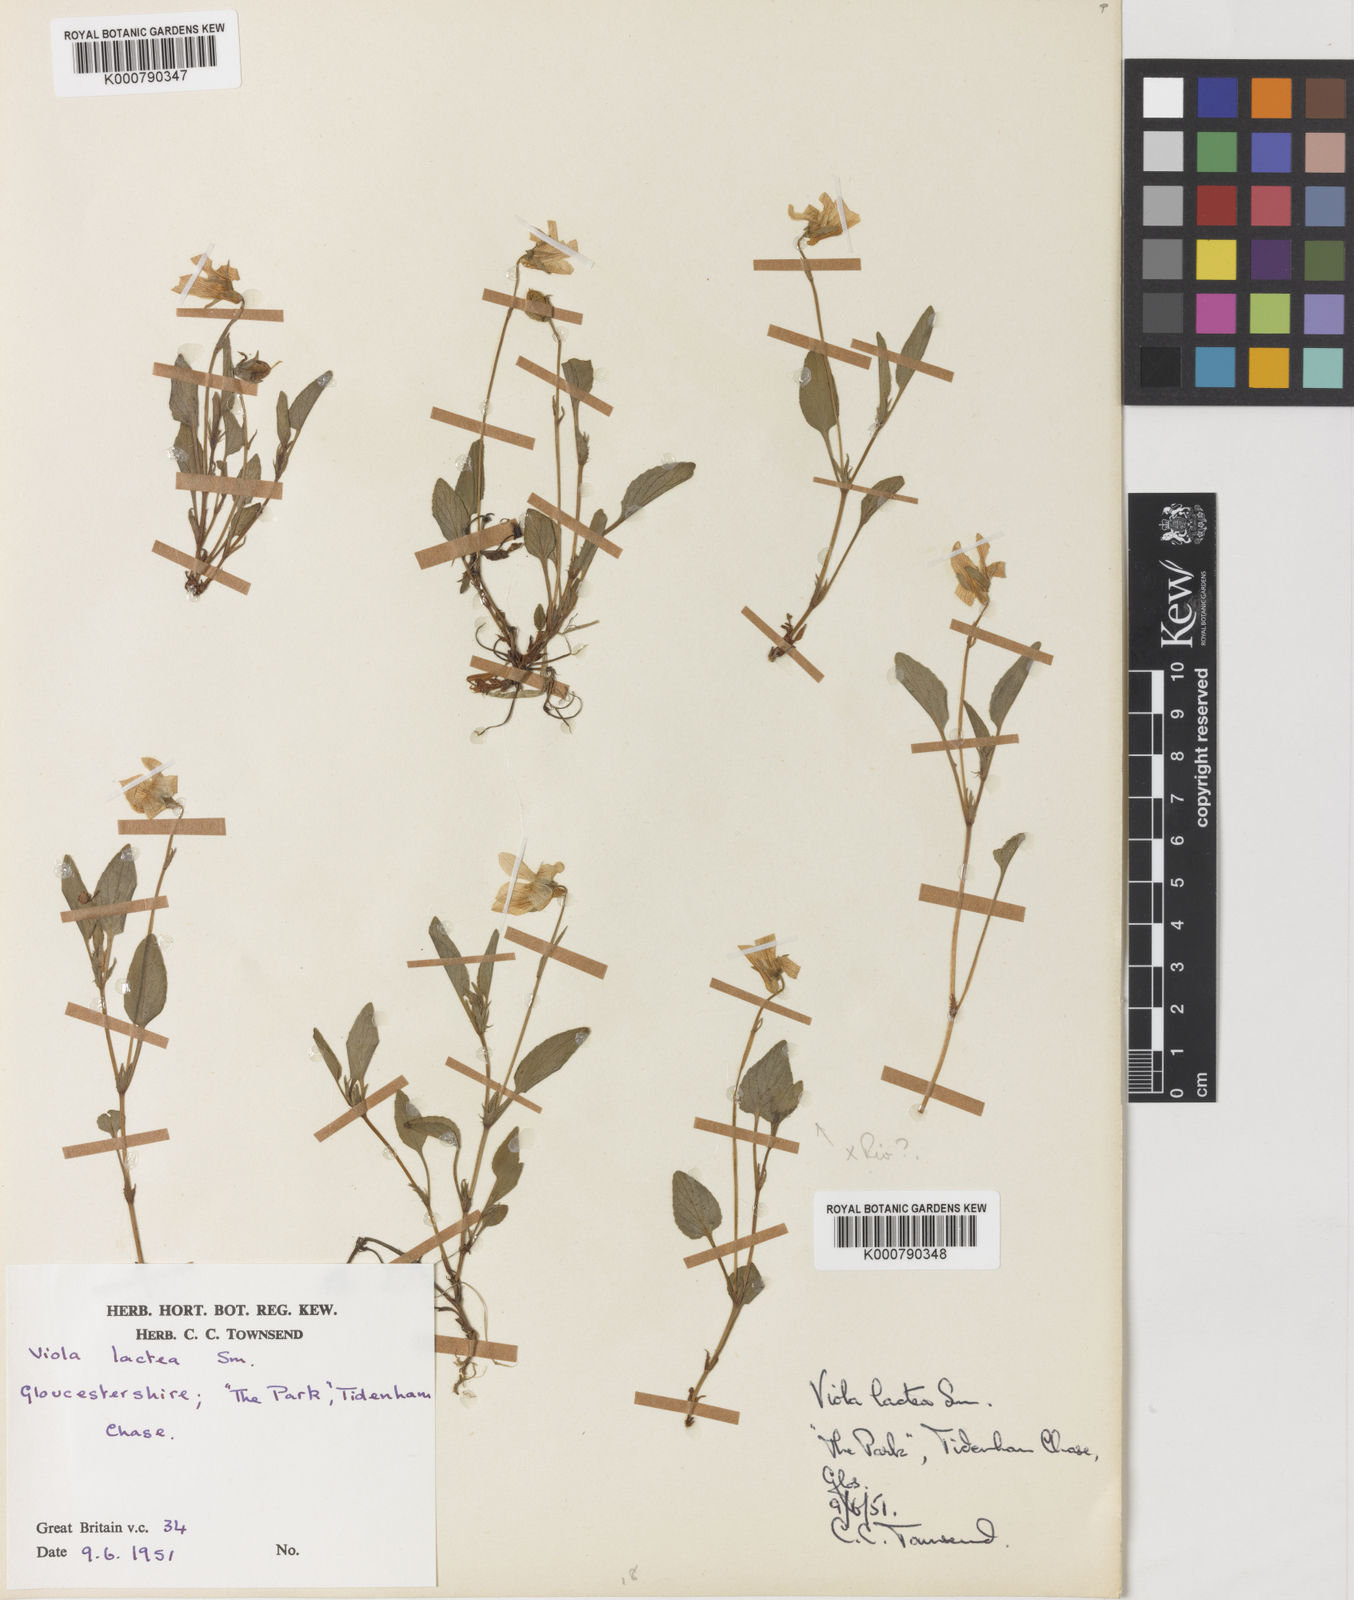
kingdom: Plantae
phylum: Tracheophyta
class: Magnoliopsida
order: Malpighiales
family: Violaceae
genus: Viola
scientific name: Viola lactea
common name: Pale dog-violet
